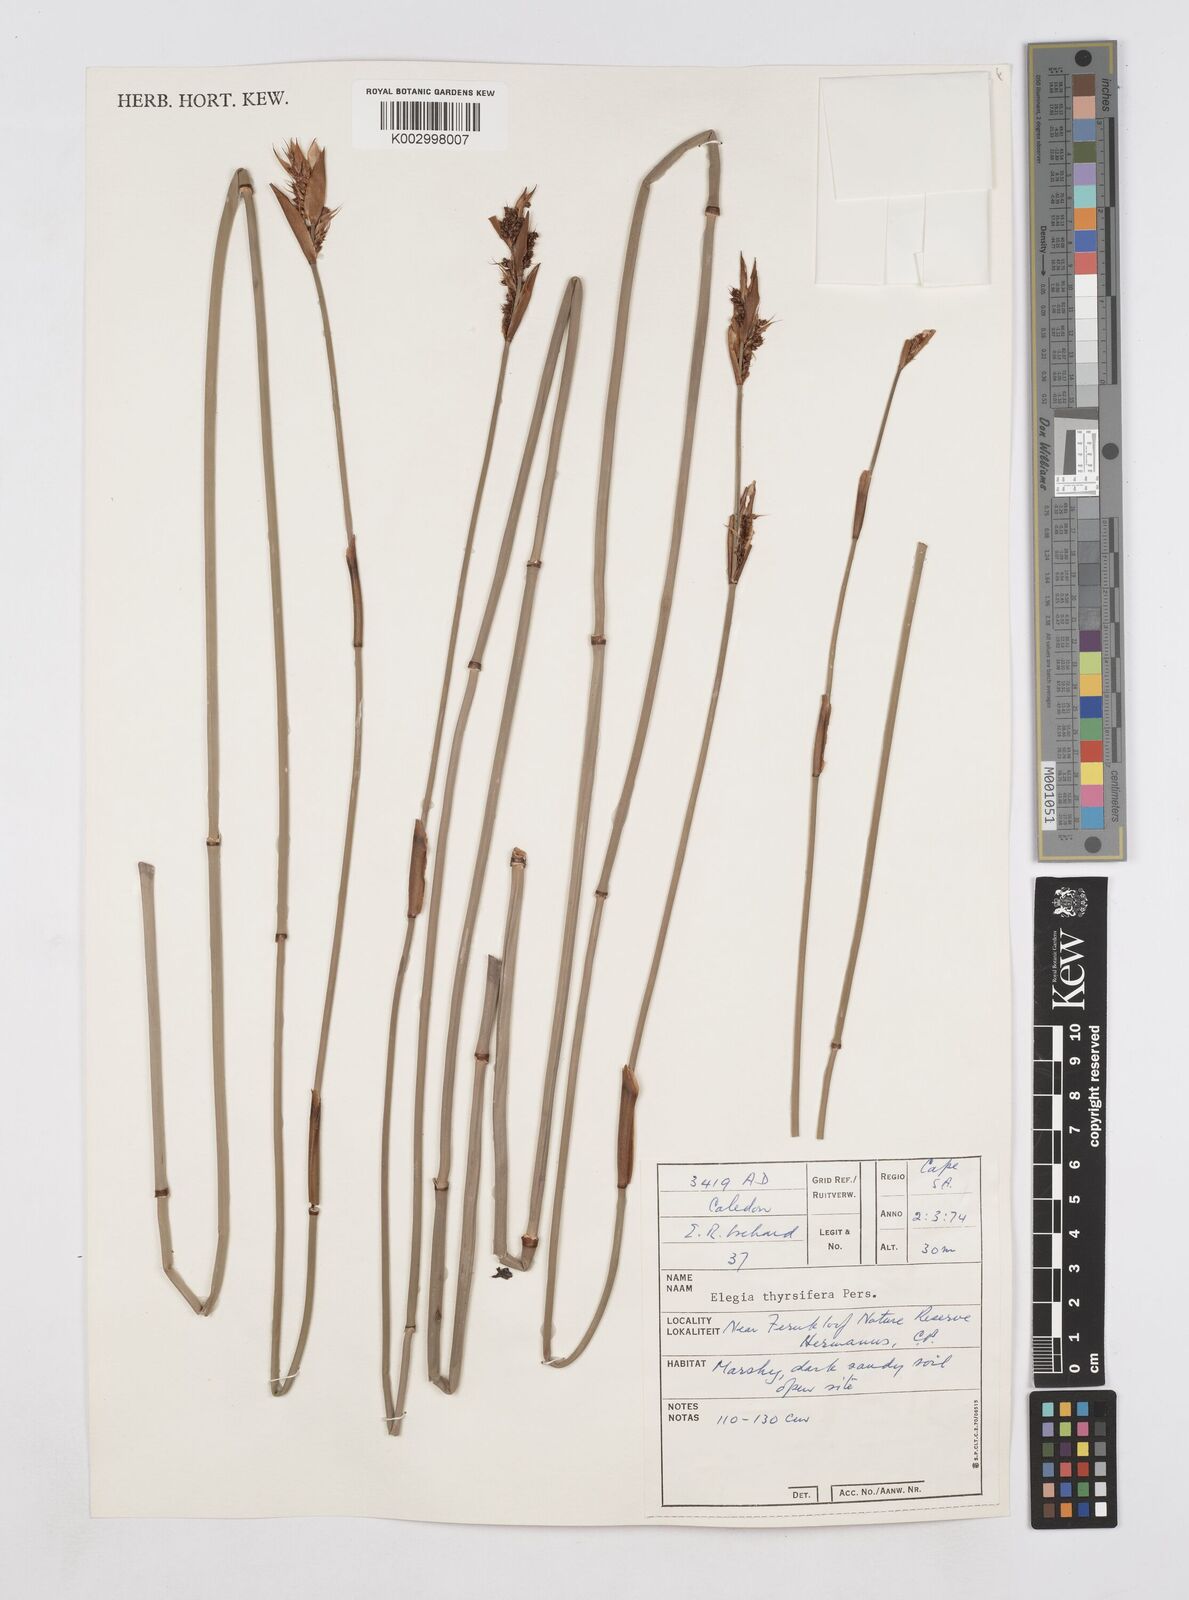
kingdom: Plantae
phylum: Tracheophyta
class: Liliopsida
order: Poales
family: Restionaceae
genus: Elegia
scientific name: Elegia thyrsifera
